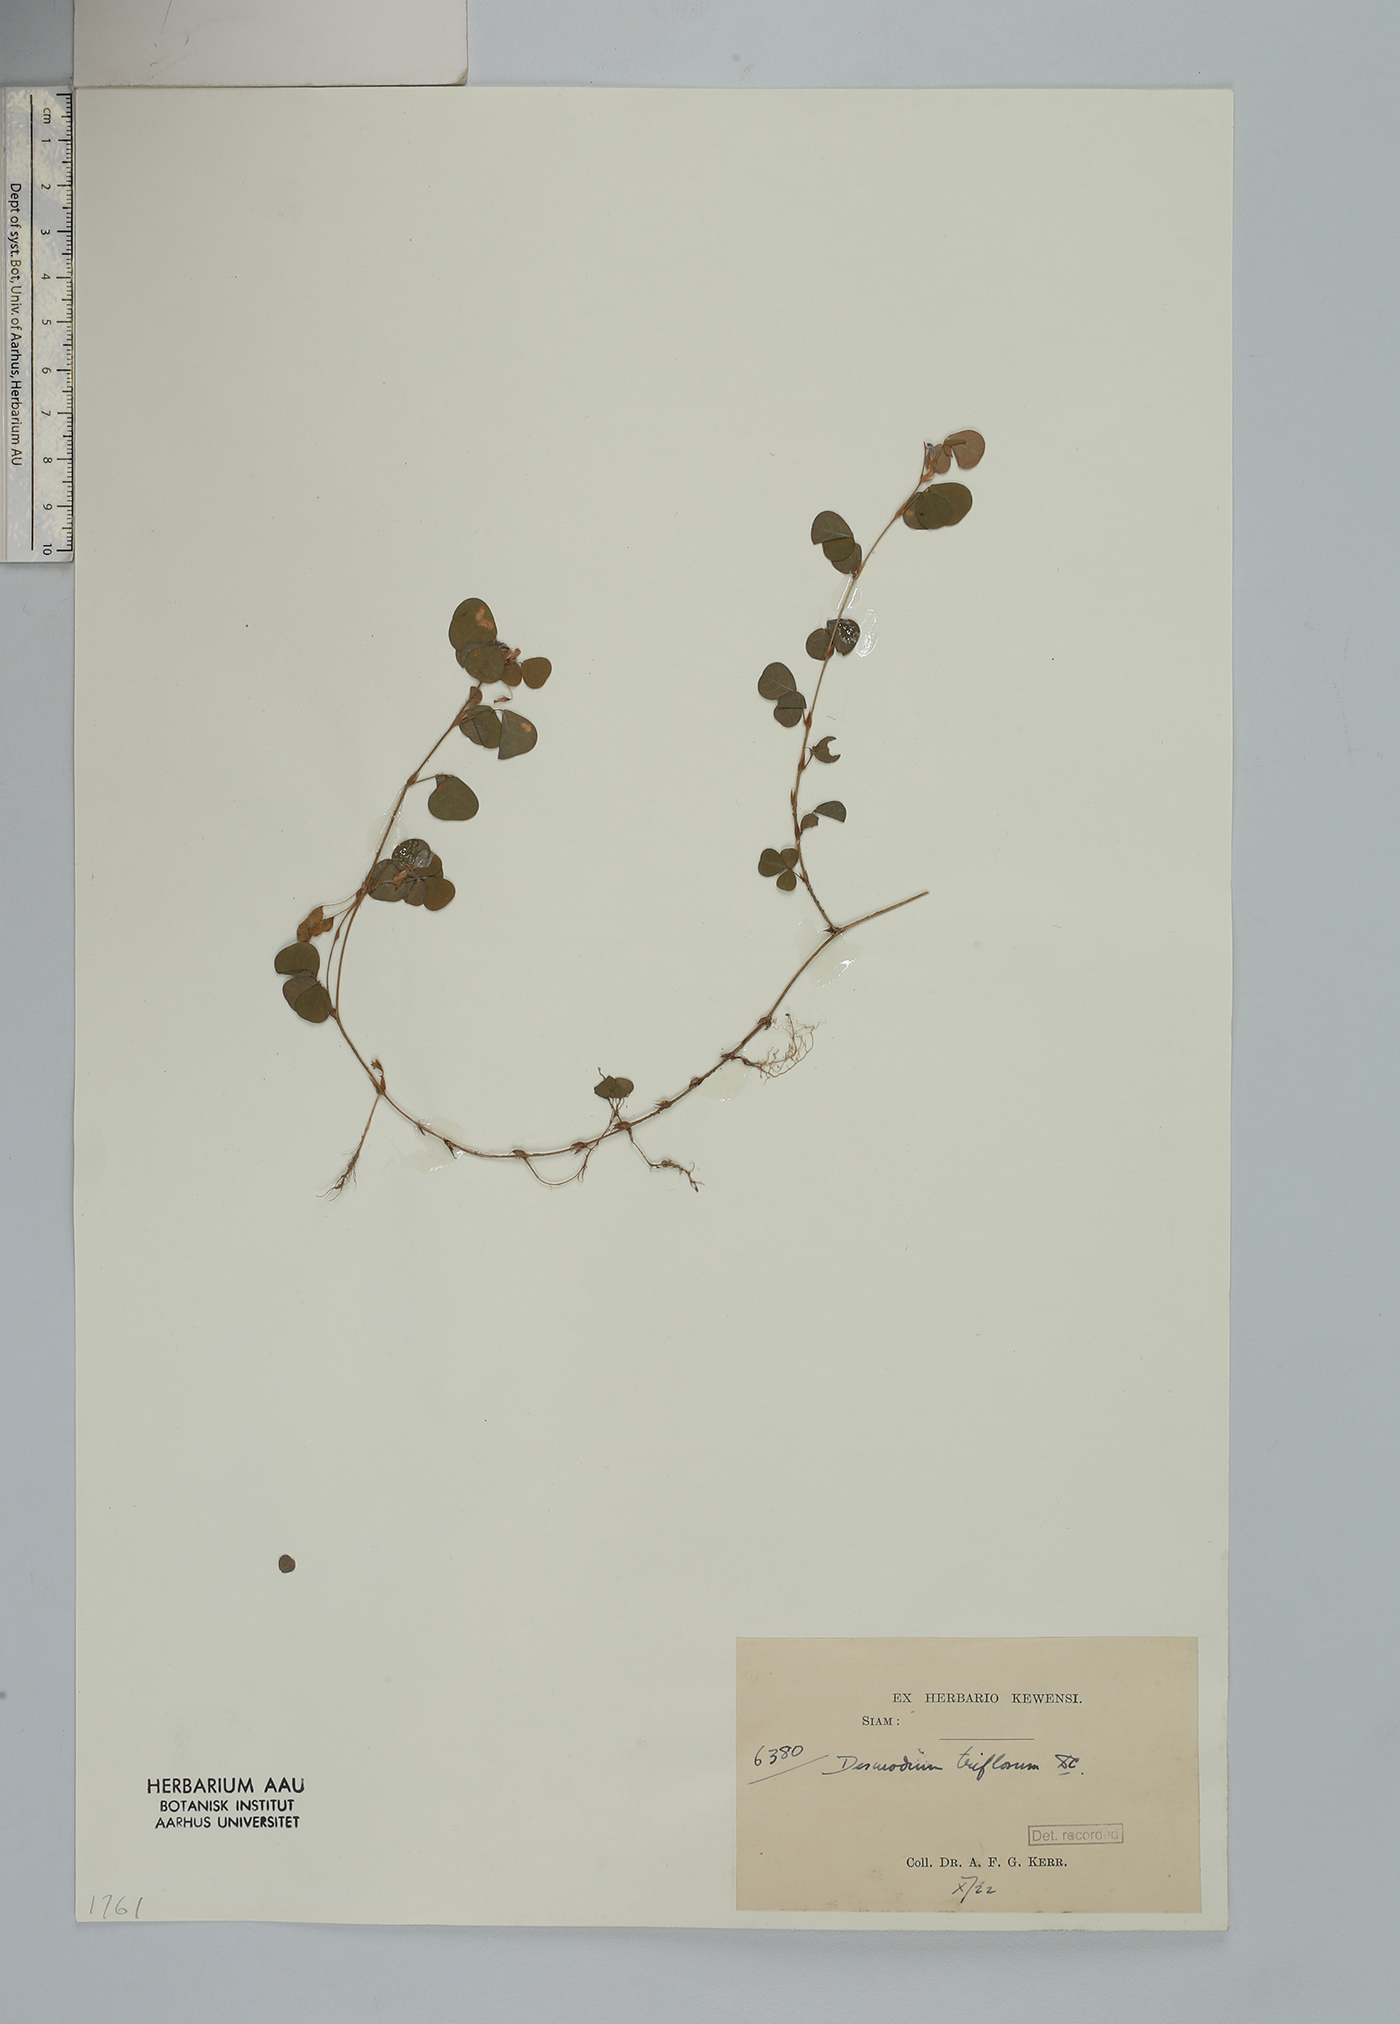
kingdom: Plantae
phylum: Tracheophyta
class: Magnoliopsida
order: Fabales
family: Fabaceae
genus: Grona
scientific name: Grona triflora
